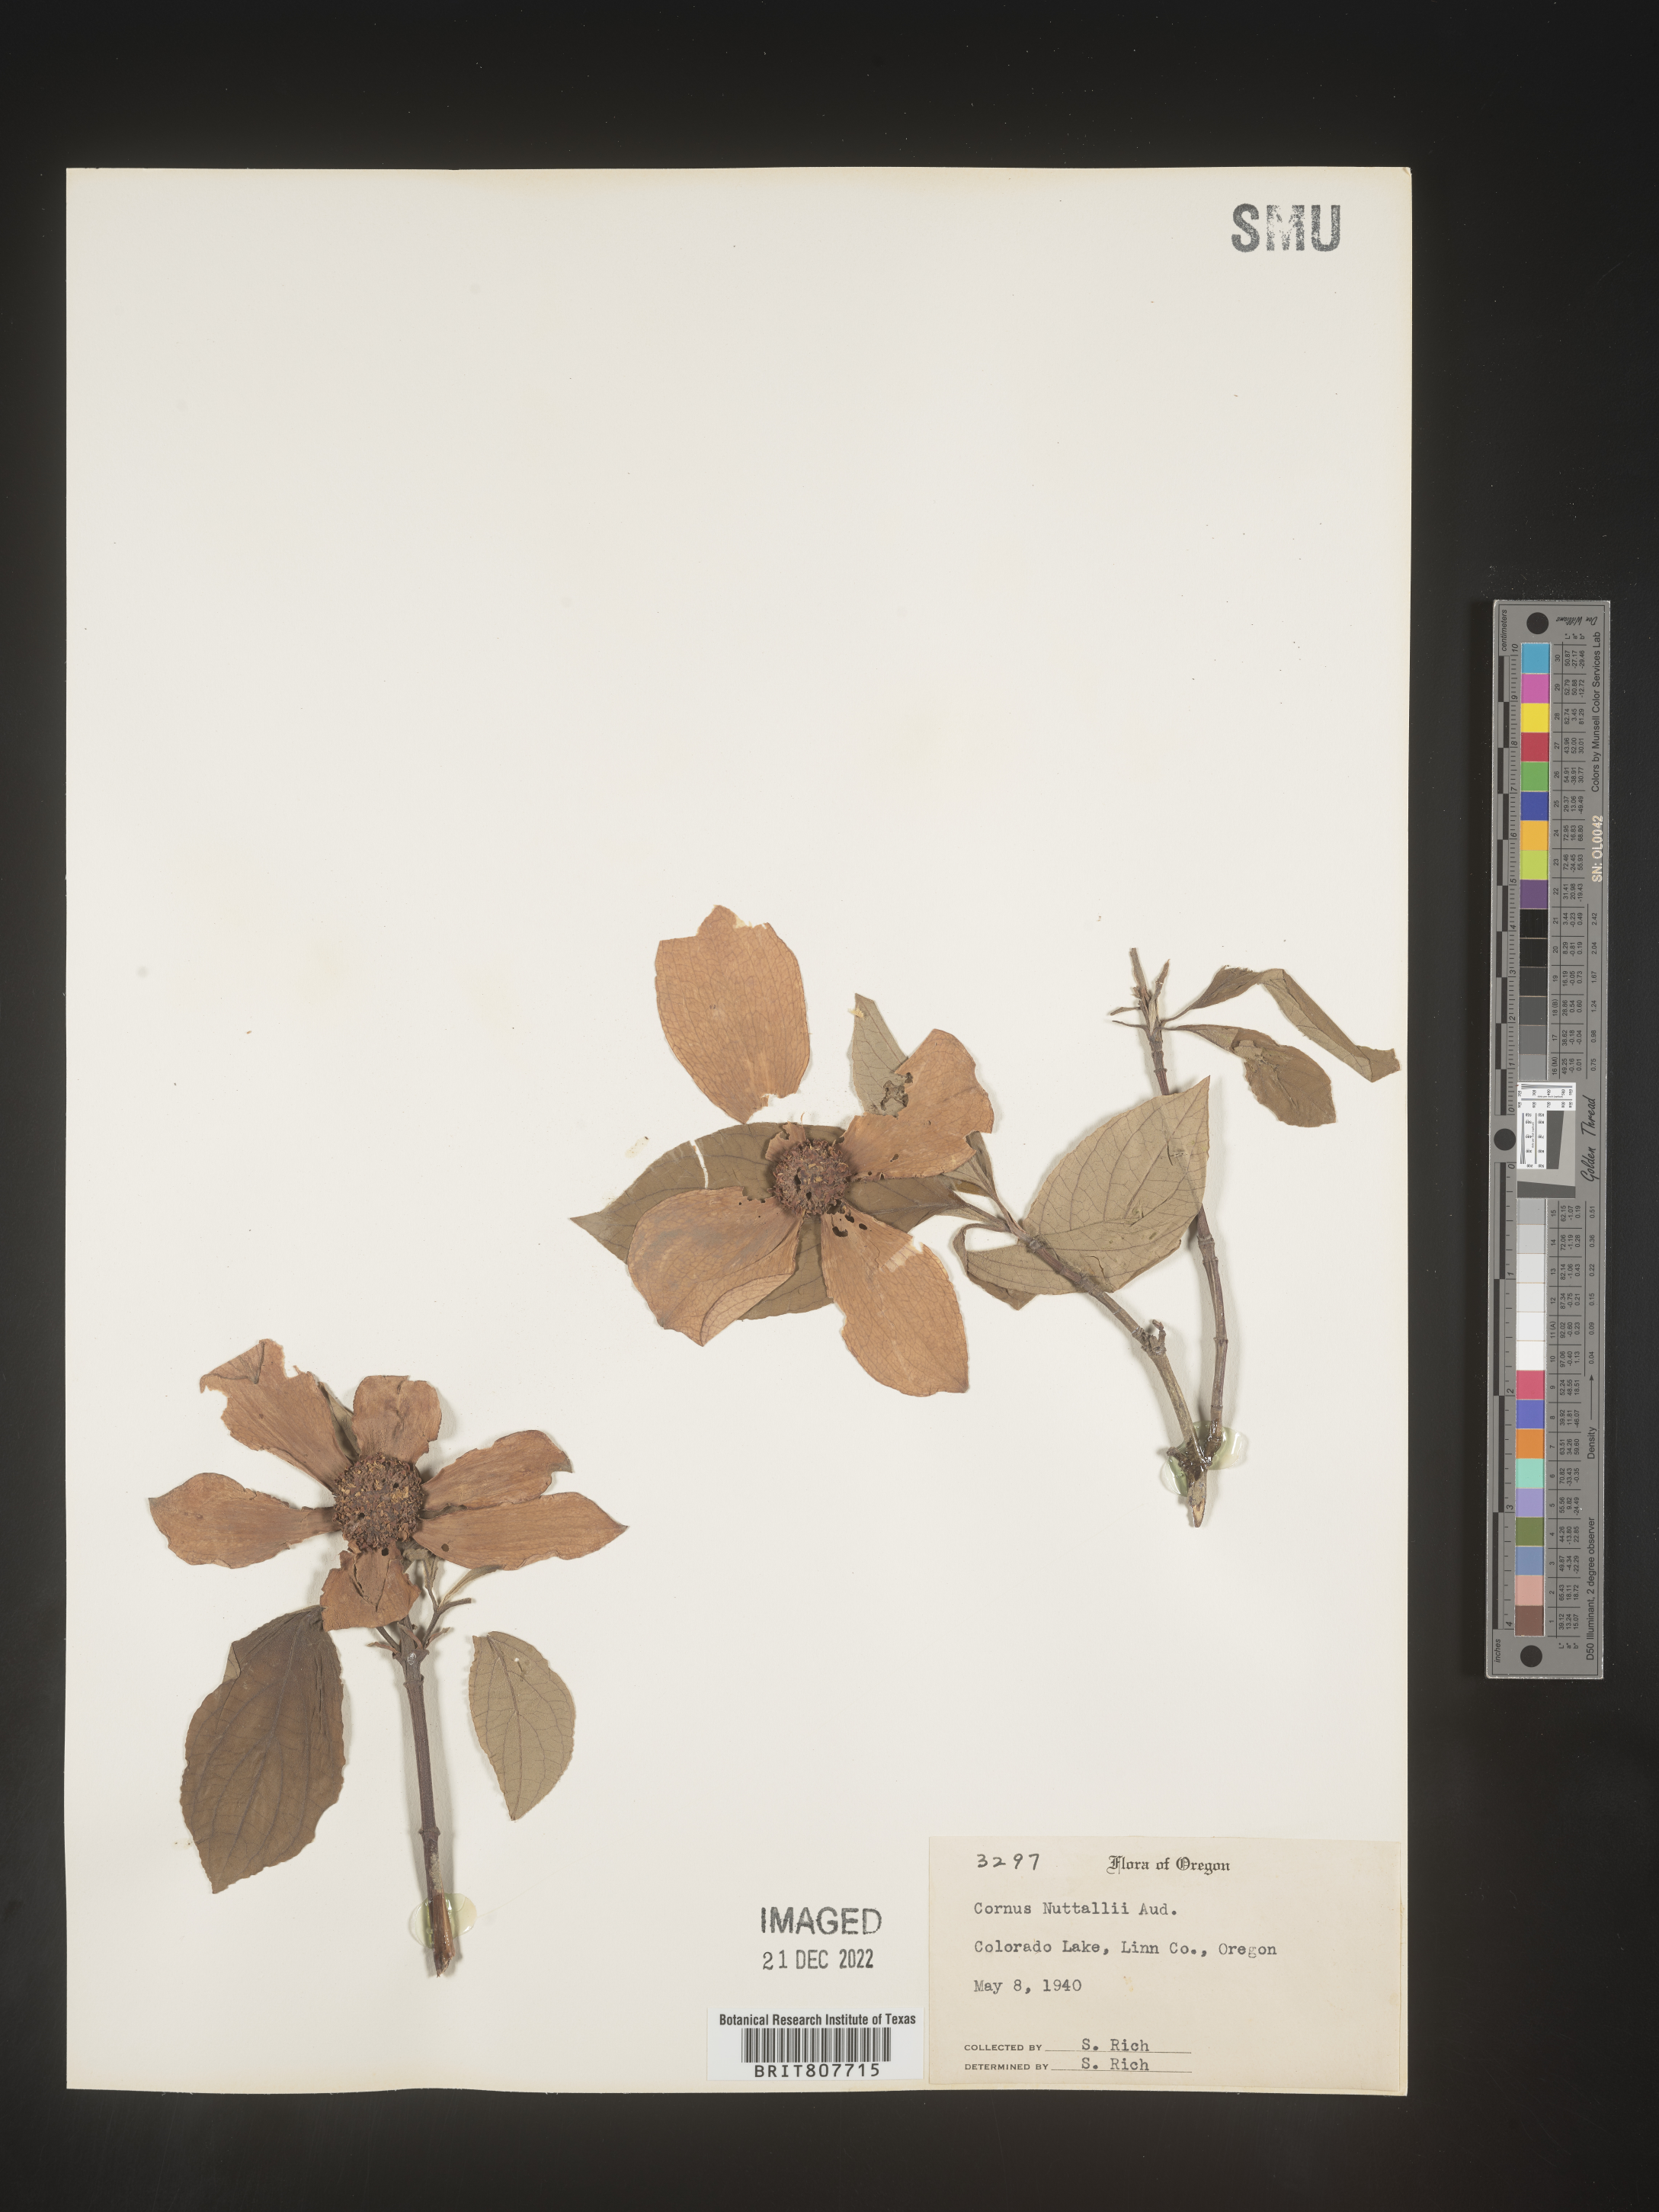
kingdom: Plantae
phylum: Tracheophyta
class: Magnoliopsida
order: Cornales
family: Cornaceae
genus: Cornus
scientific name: Cornus nuttallii
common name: Pacific dogwood
